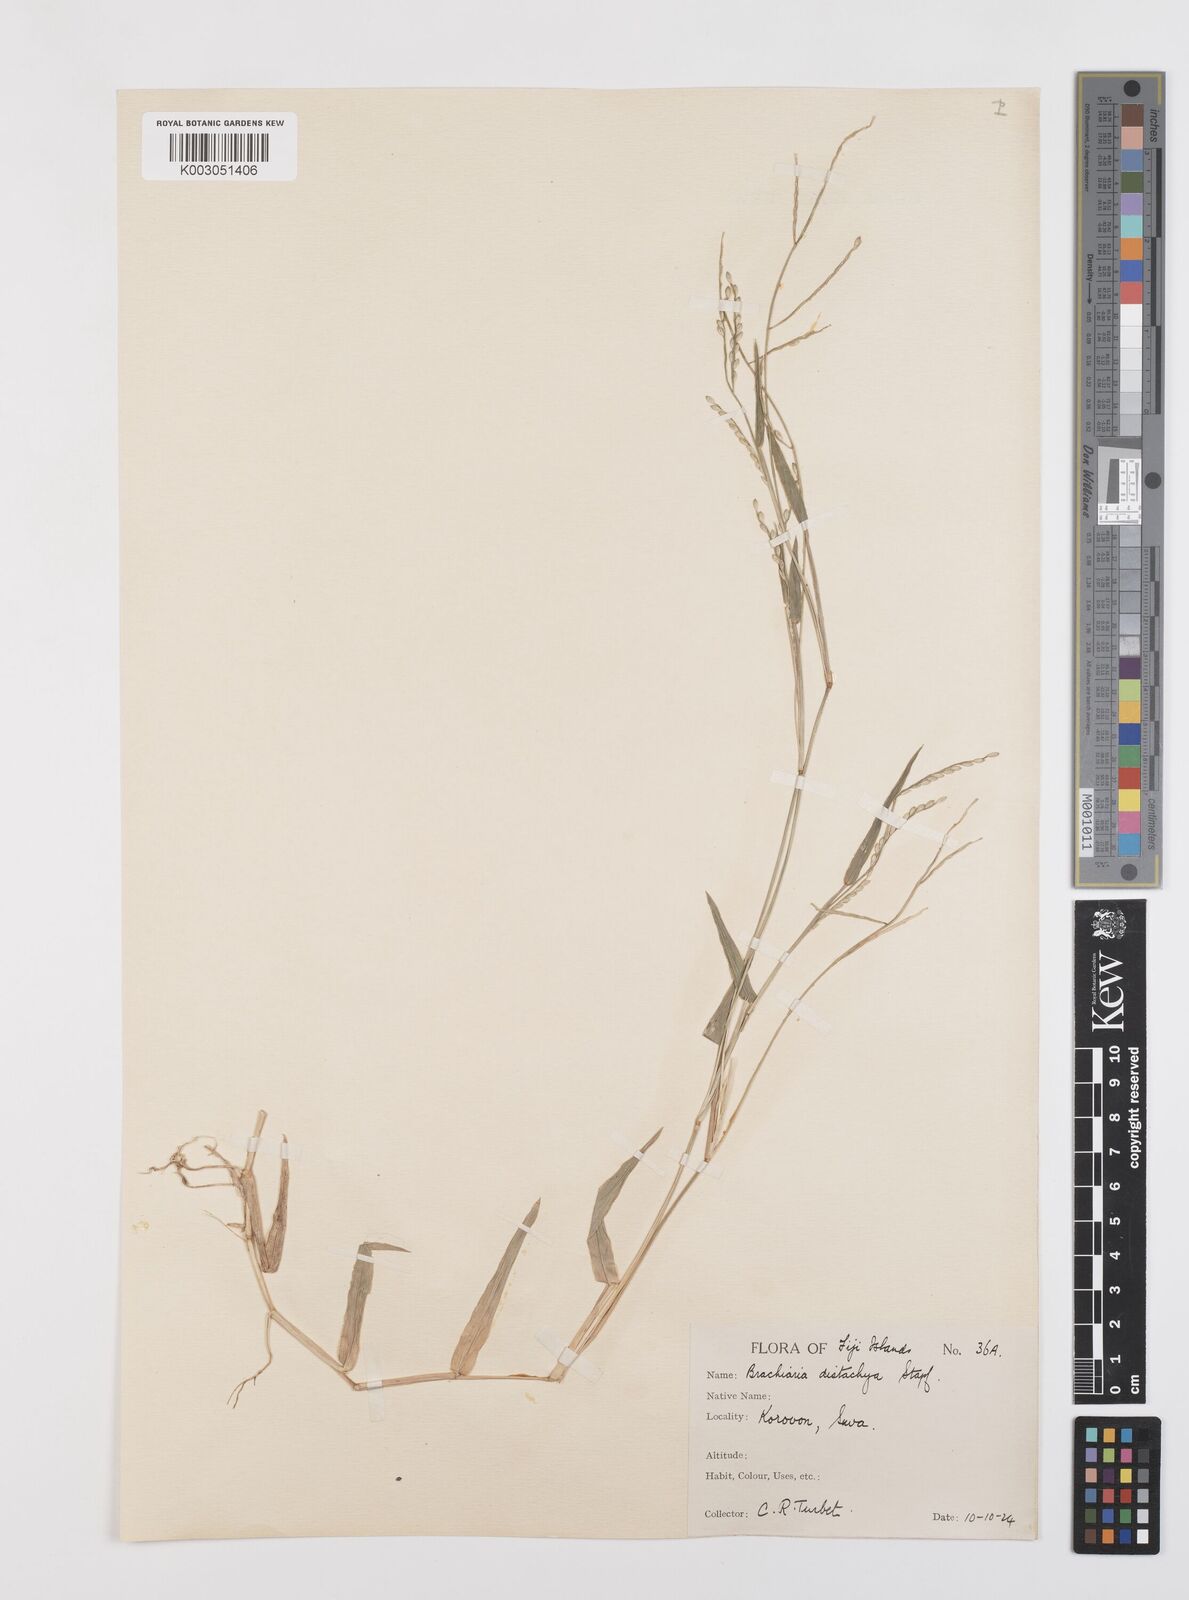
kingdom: Plantae
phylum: Tracheophyta
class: Liliopsida
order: Poales
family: Poaceae
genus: Urochloa
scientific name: Urochloa subquadripara
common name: Armgrass millet
